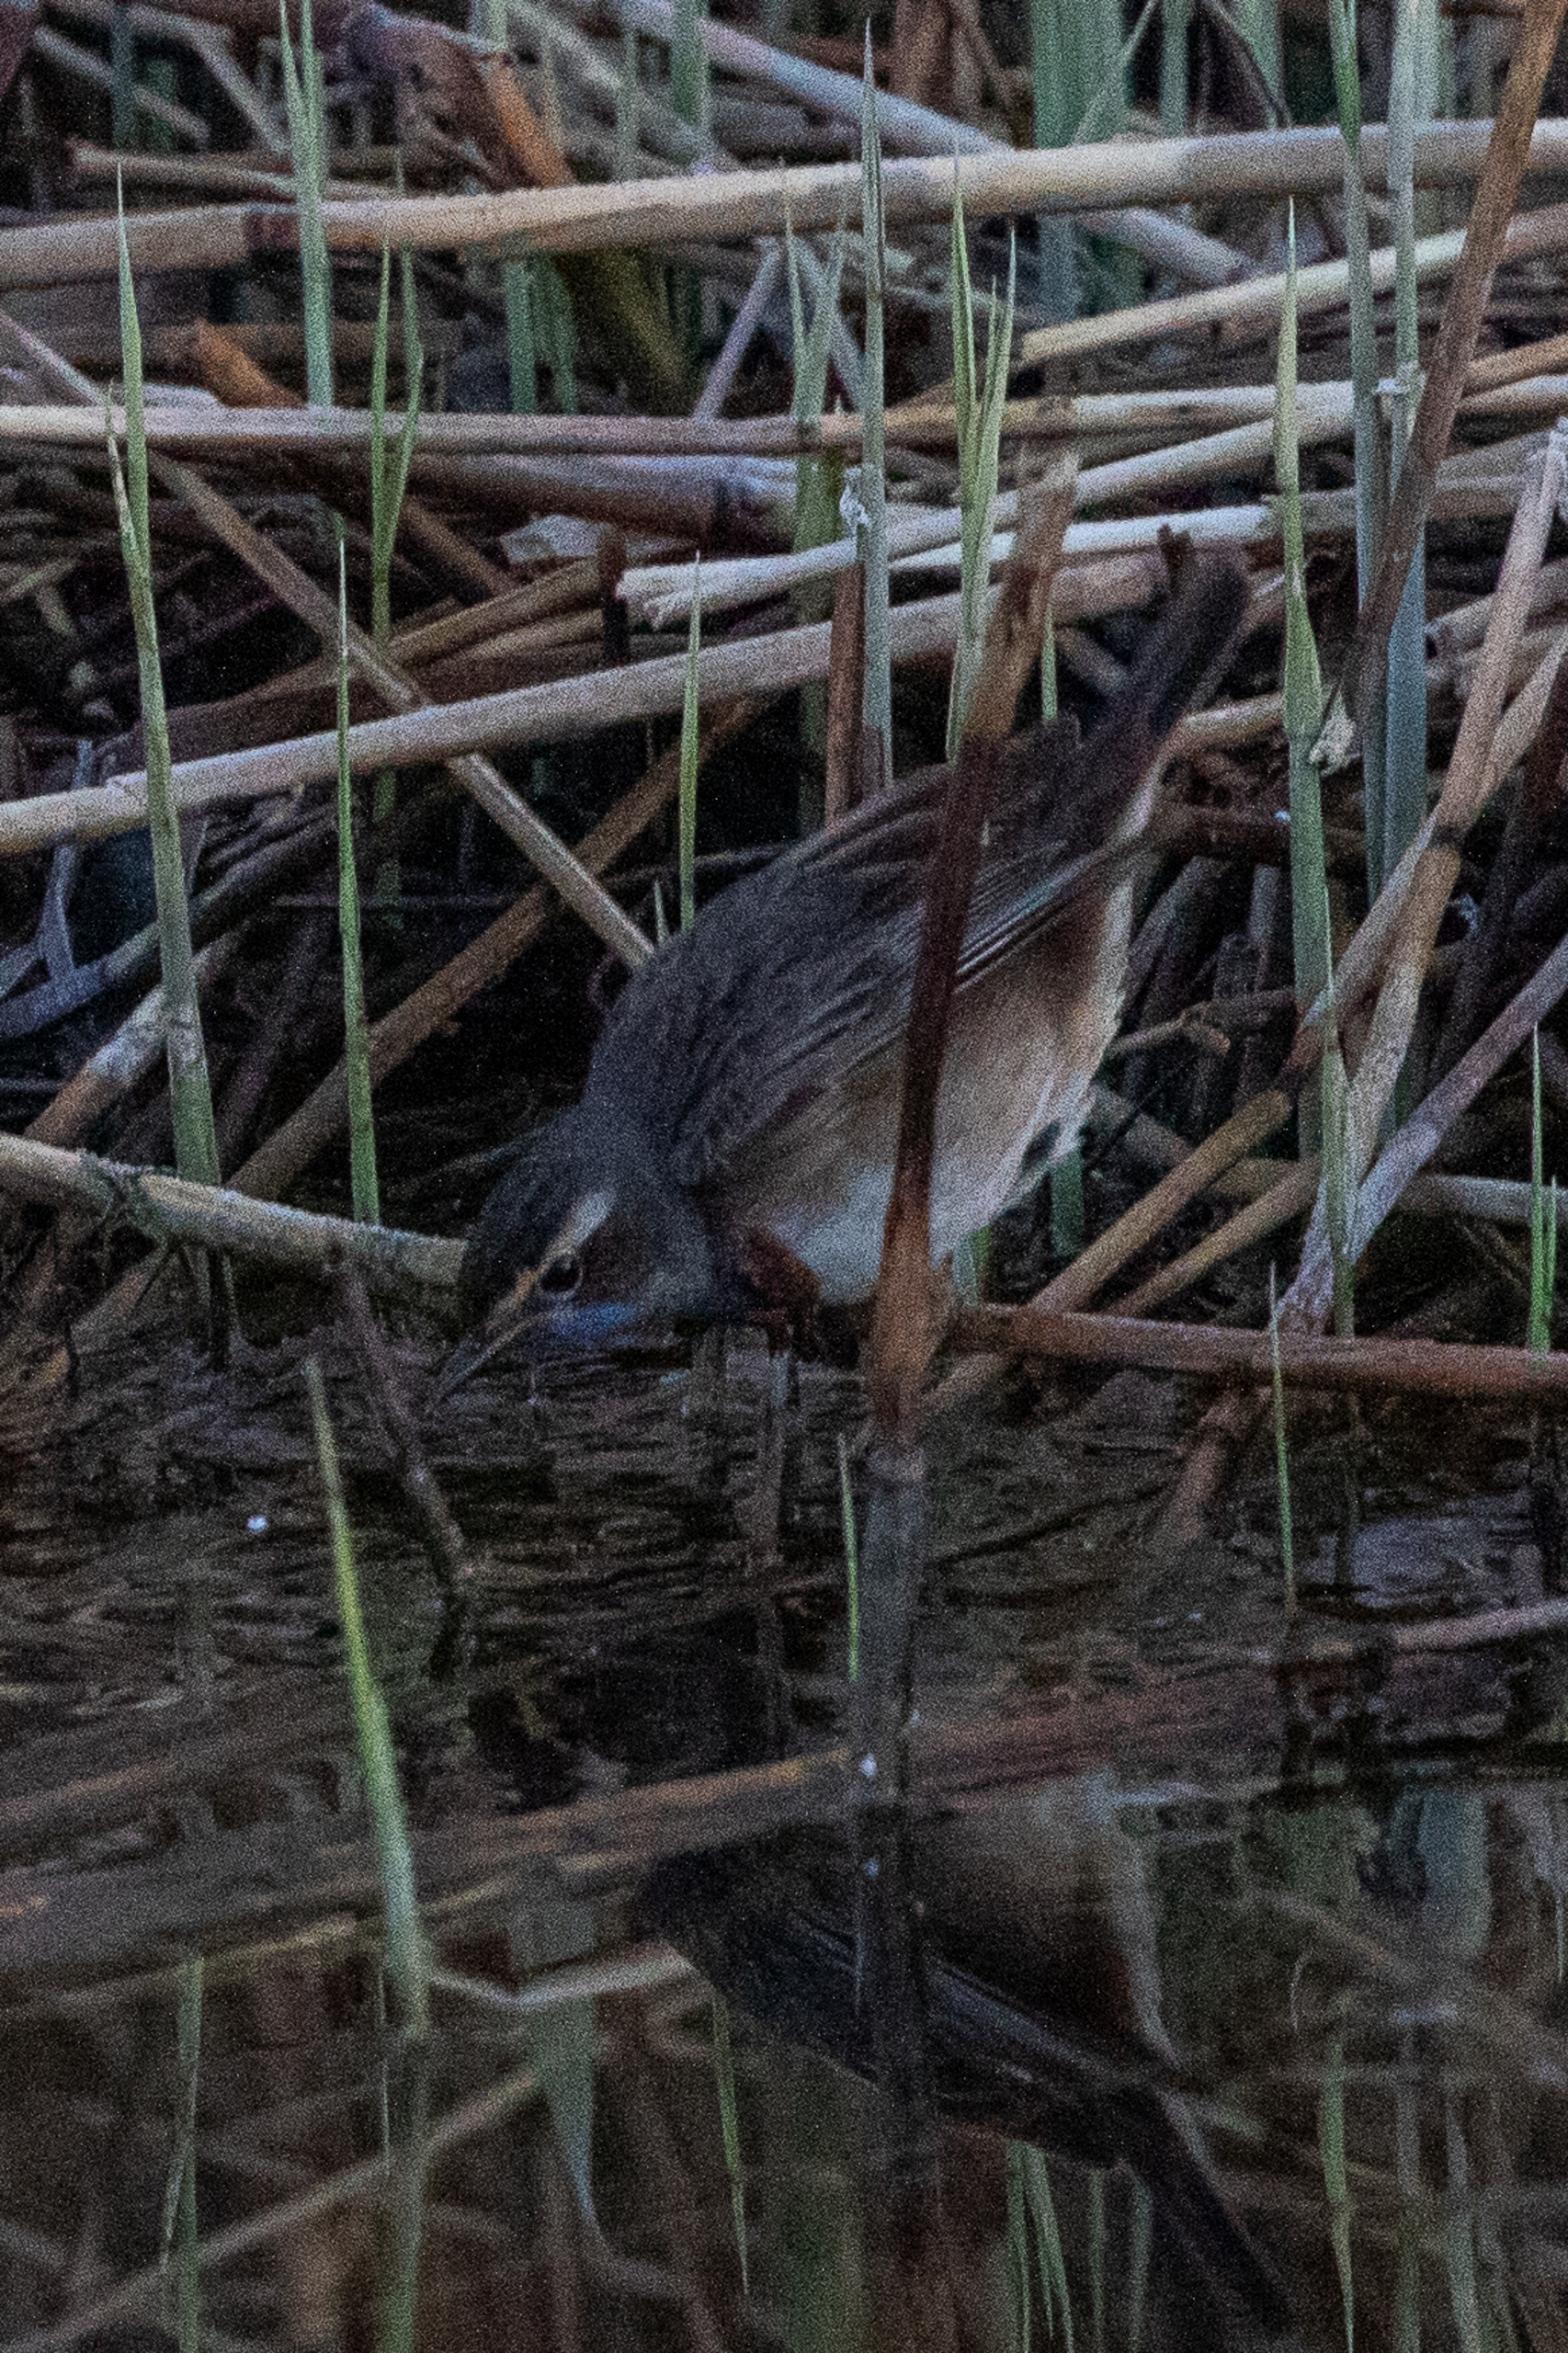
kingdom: Animalia
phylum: Chordata
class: Aves
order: Passeriformes
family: Muscicapidae
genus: Luscinia
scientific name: Luscinia svecica
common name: Sydlig blåhals
